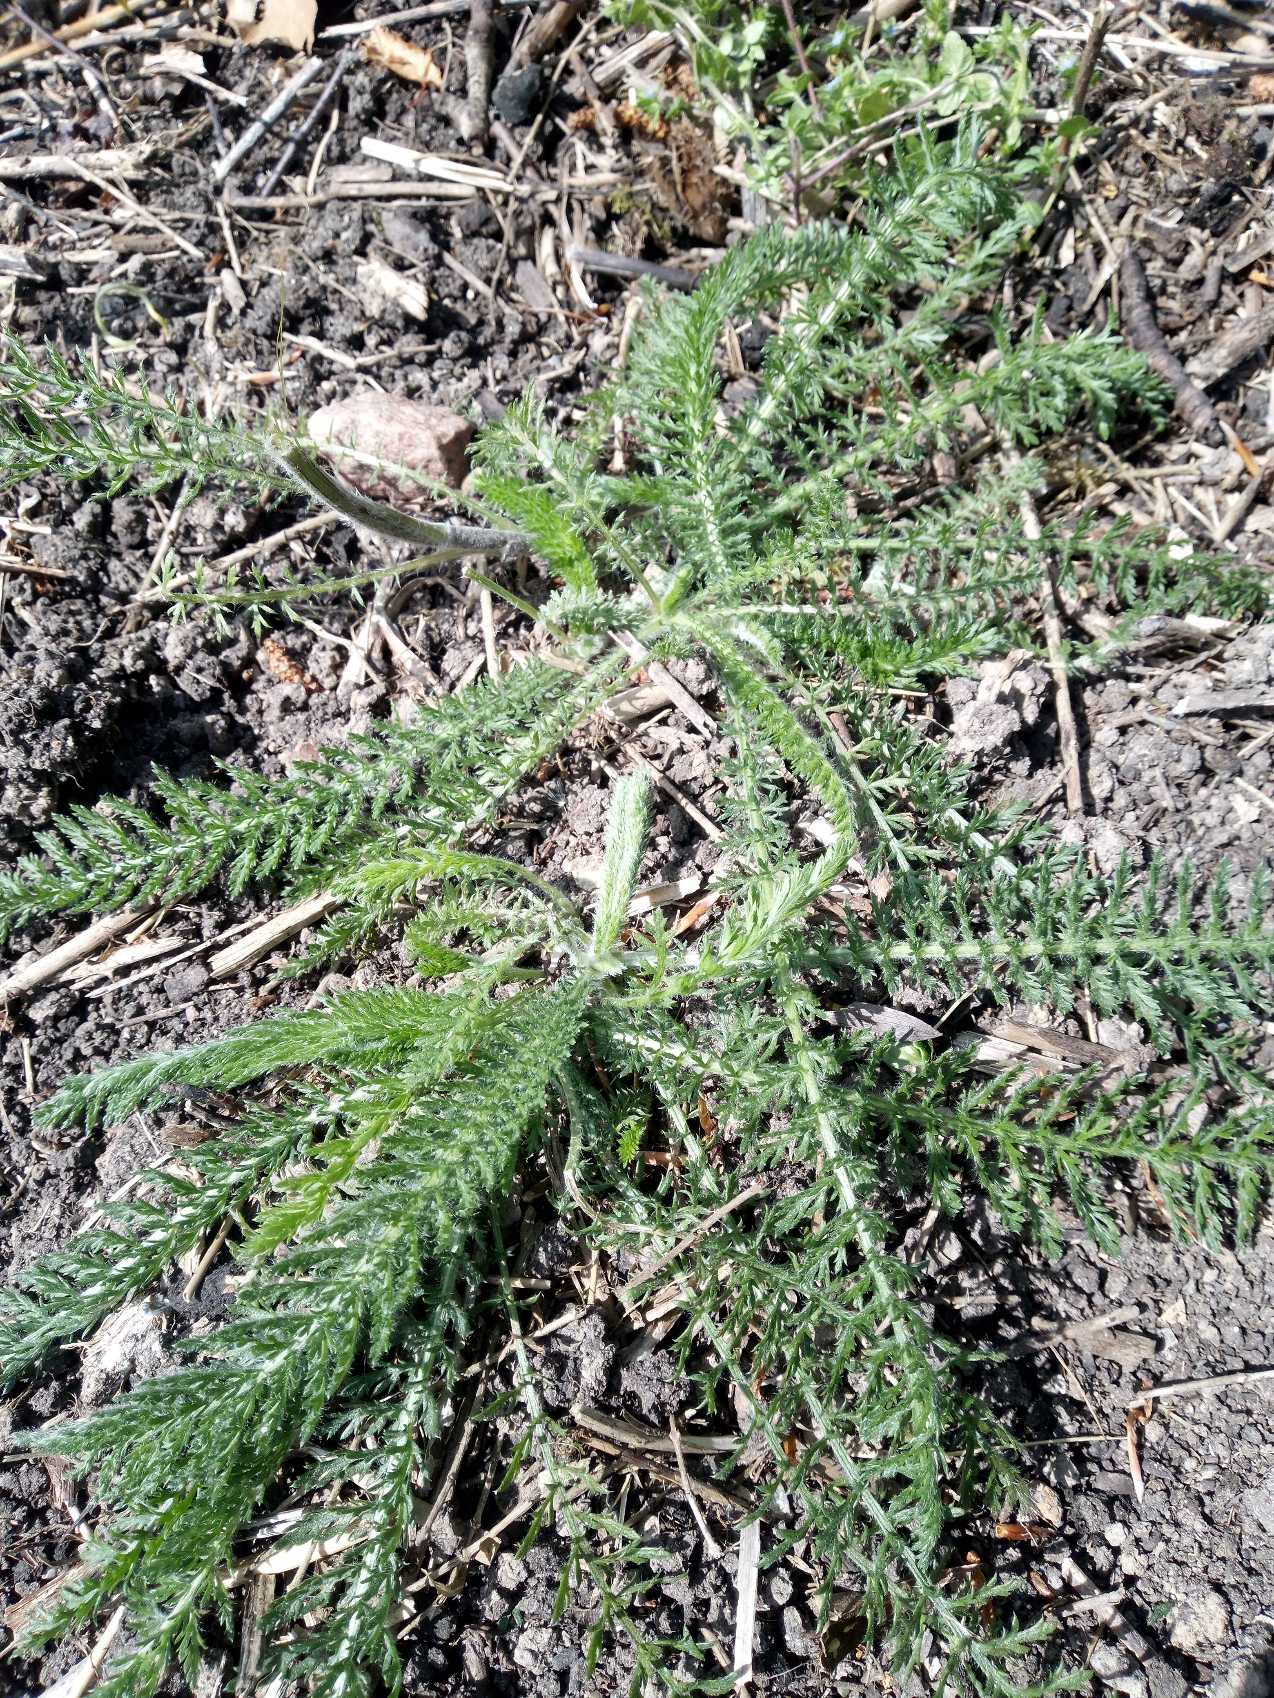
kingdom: Plantae
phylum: Tracheophyta
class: Magnoliopsida
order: Asterales
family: Asteraceae
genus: Achillea
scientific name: Achillea millefolium
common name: Almindelig røllike
